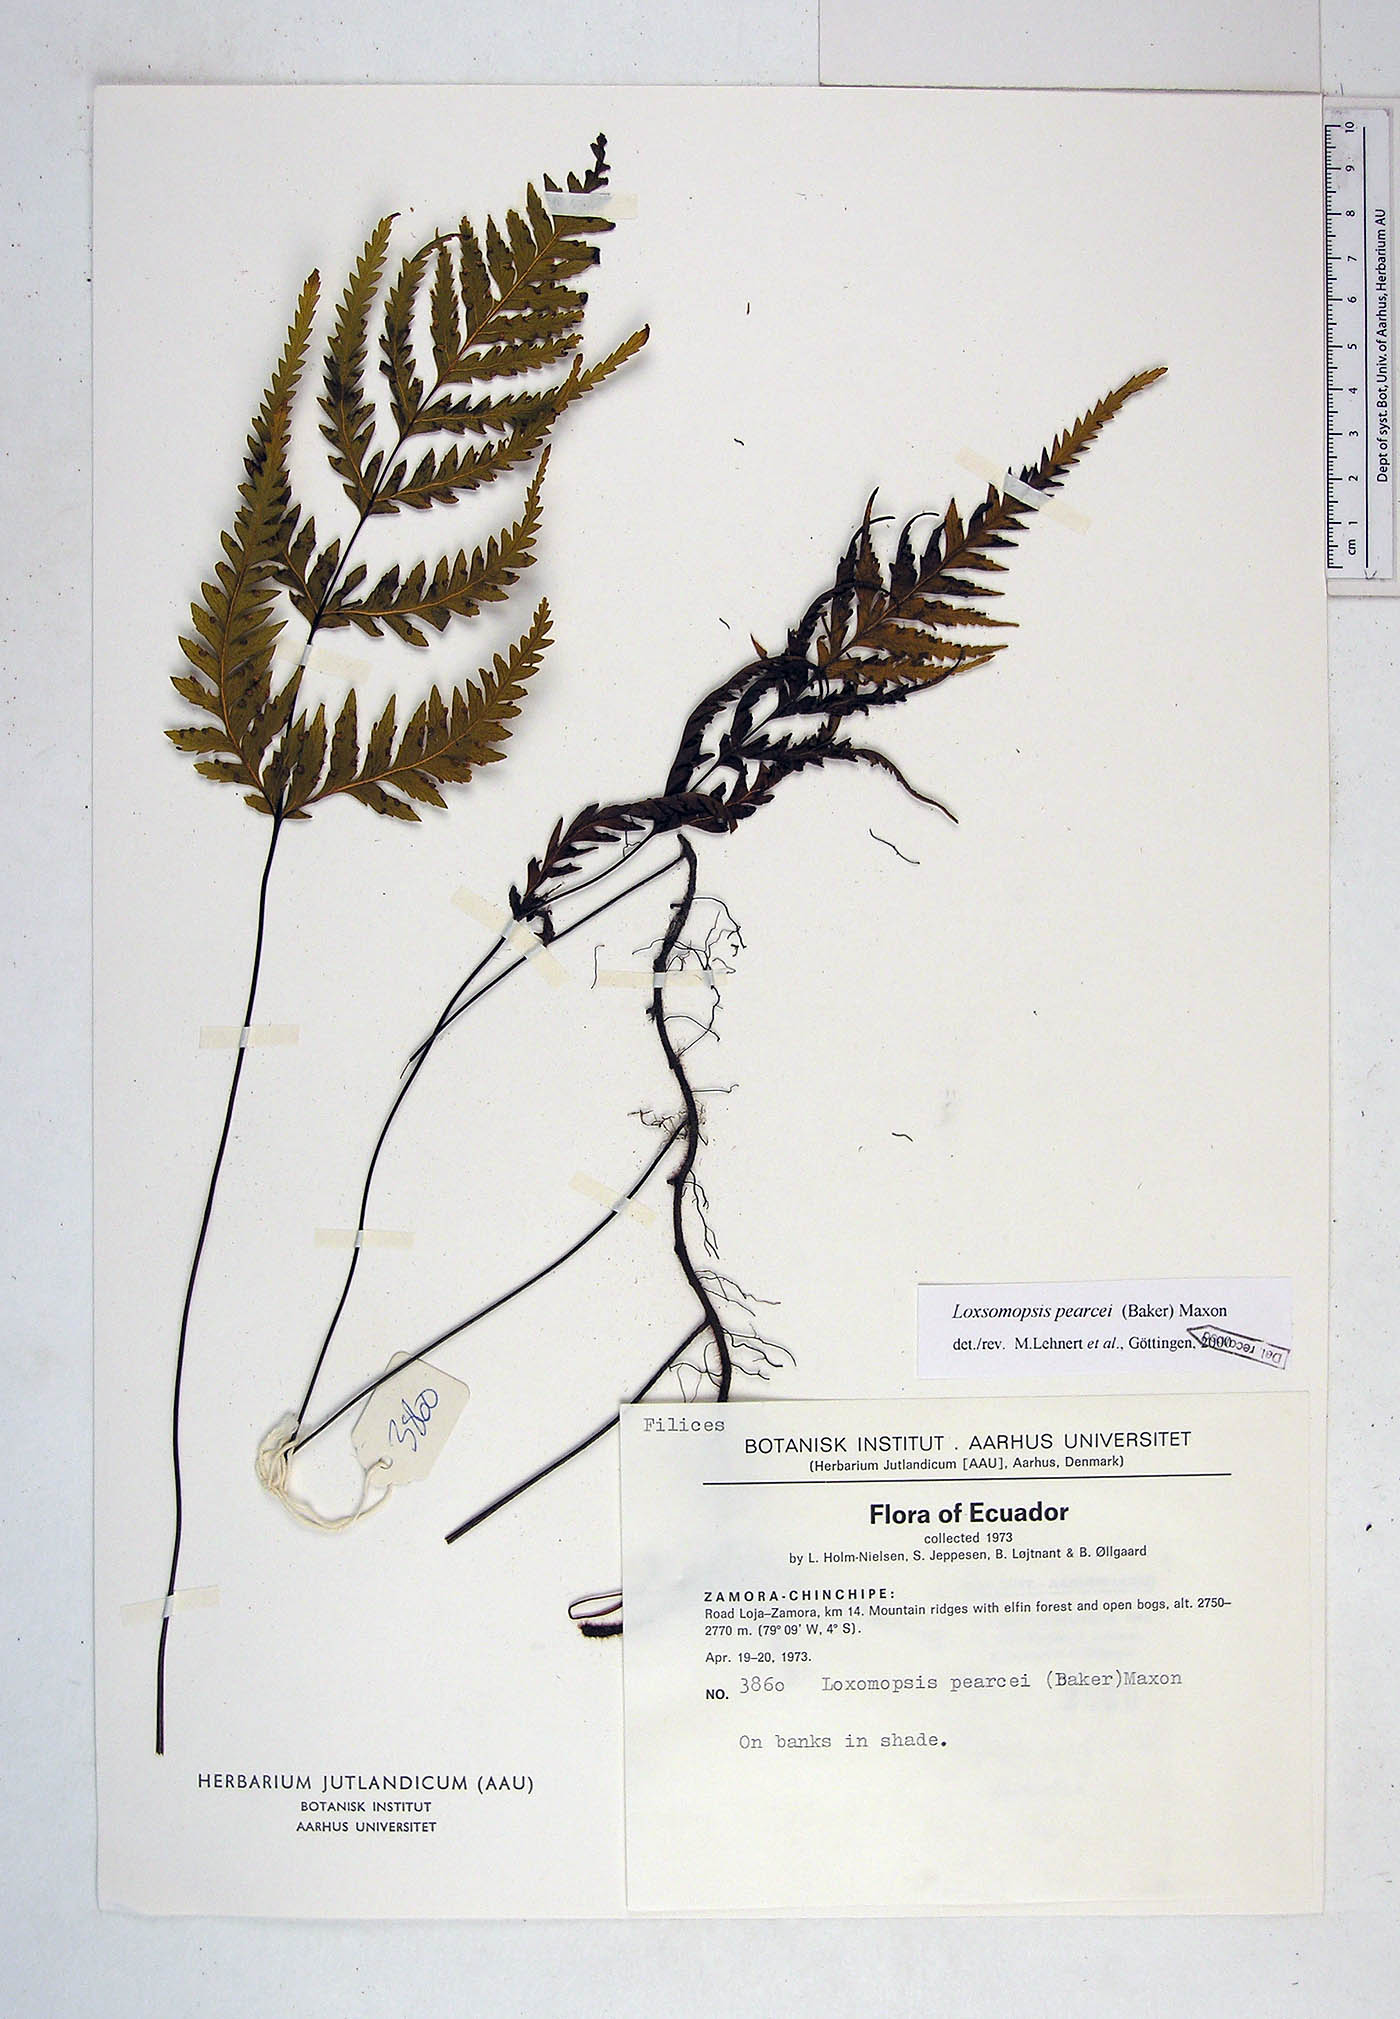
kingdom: Plantae
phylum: Tracheophyta
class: Polypodiopsida
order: Cyatheales
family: Loxsomataceae
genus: Loxsomopsis
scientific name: Loxsomopsis pearcei
